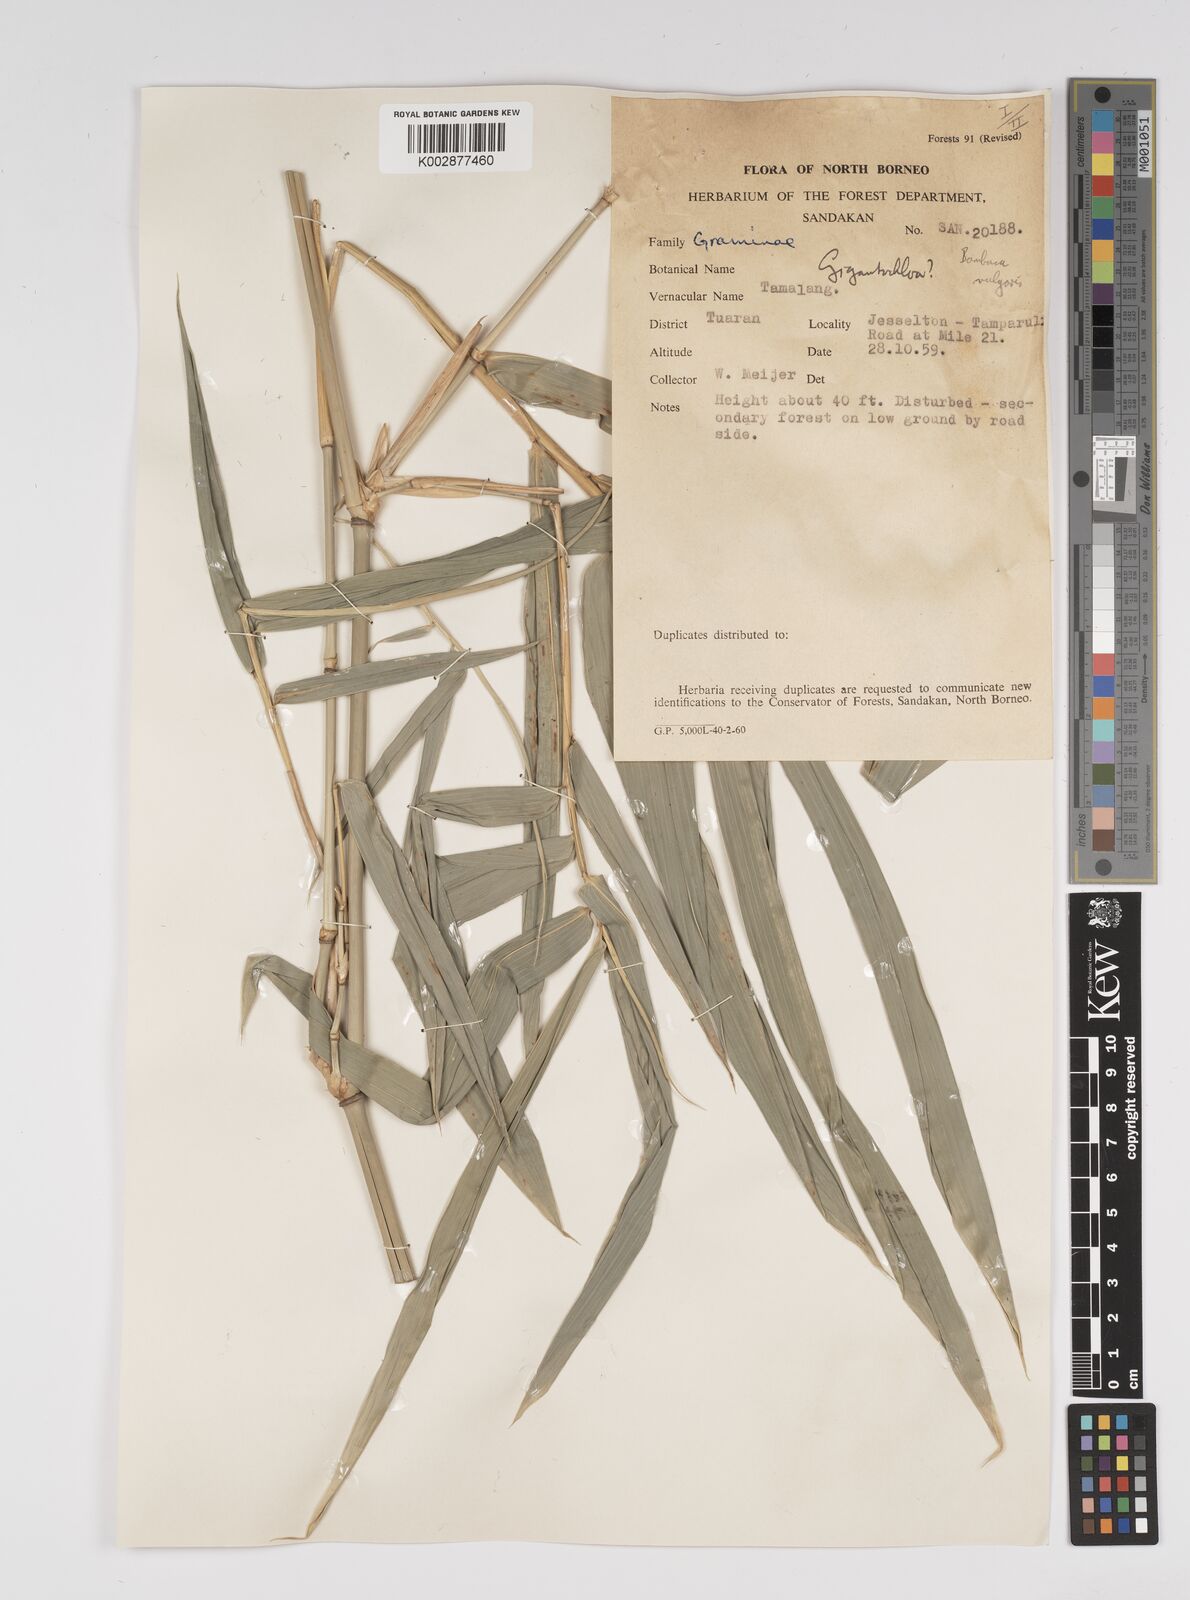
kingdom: Plantae
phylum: Tracheophyta
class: Liliopsida
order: Poales
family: Poaceae
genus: Bambusa
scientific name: Bambusa vulgaris
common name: Common bamboo
